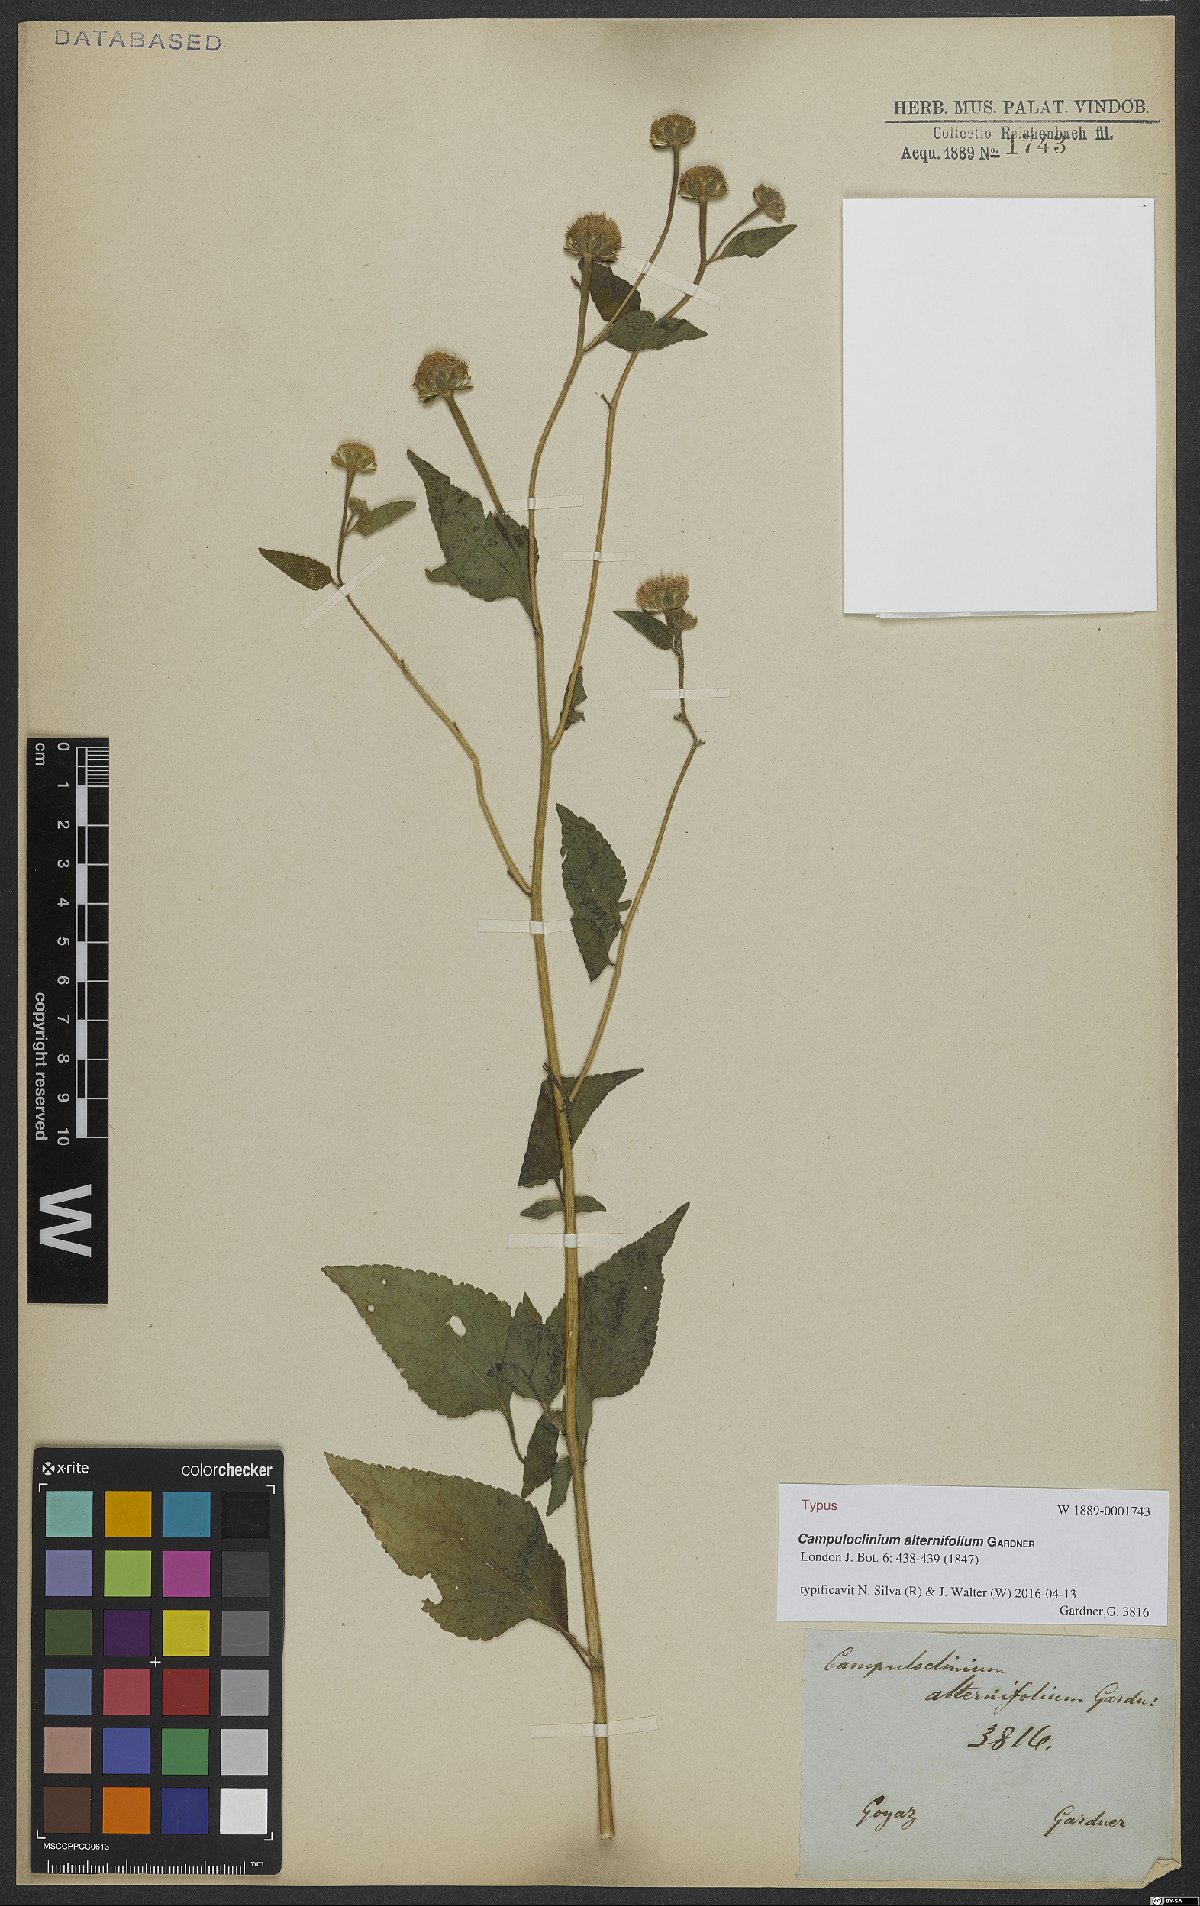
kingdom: Plantae
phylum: Tracheophyta
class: Magnoliopsida
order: Asterales
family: Asteraceae
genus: Campuloclinium
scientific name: Campuloclinium alternifolium
